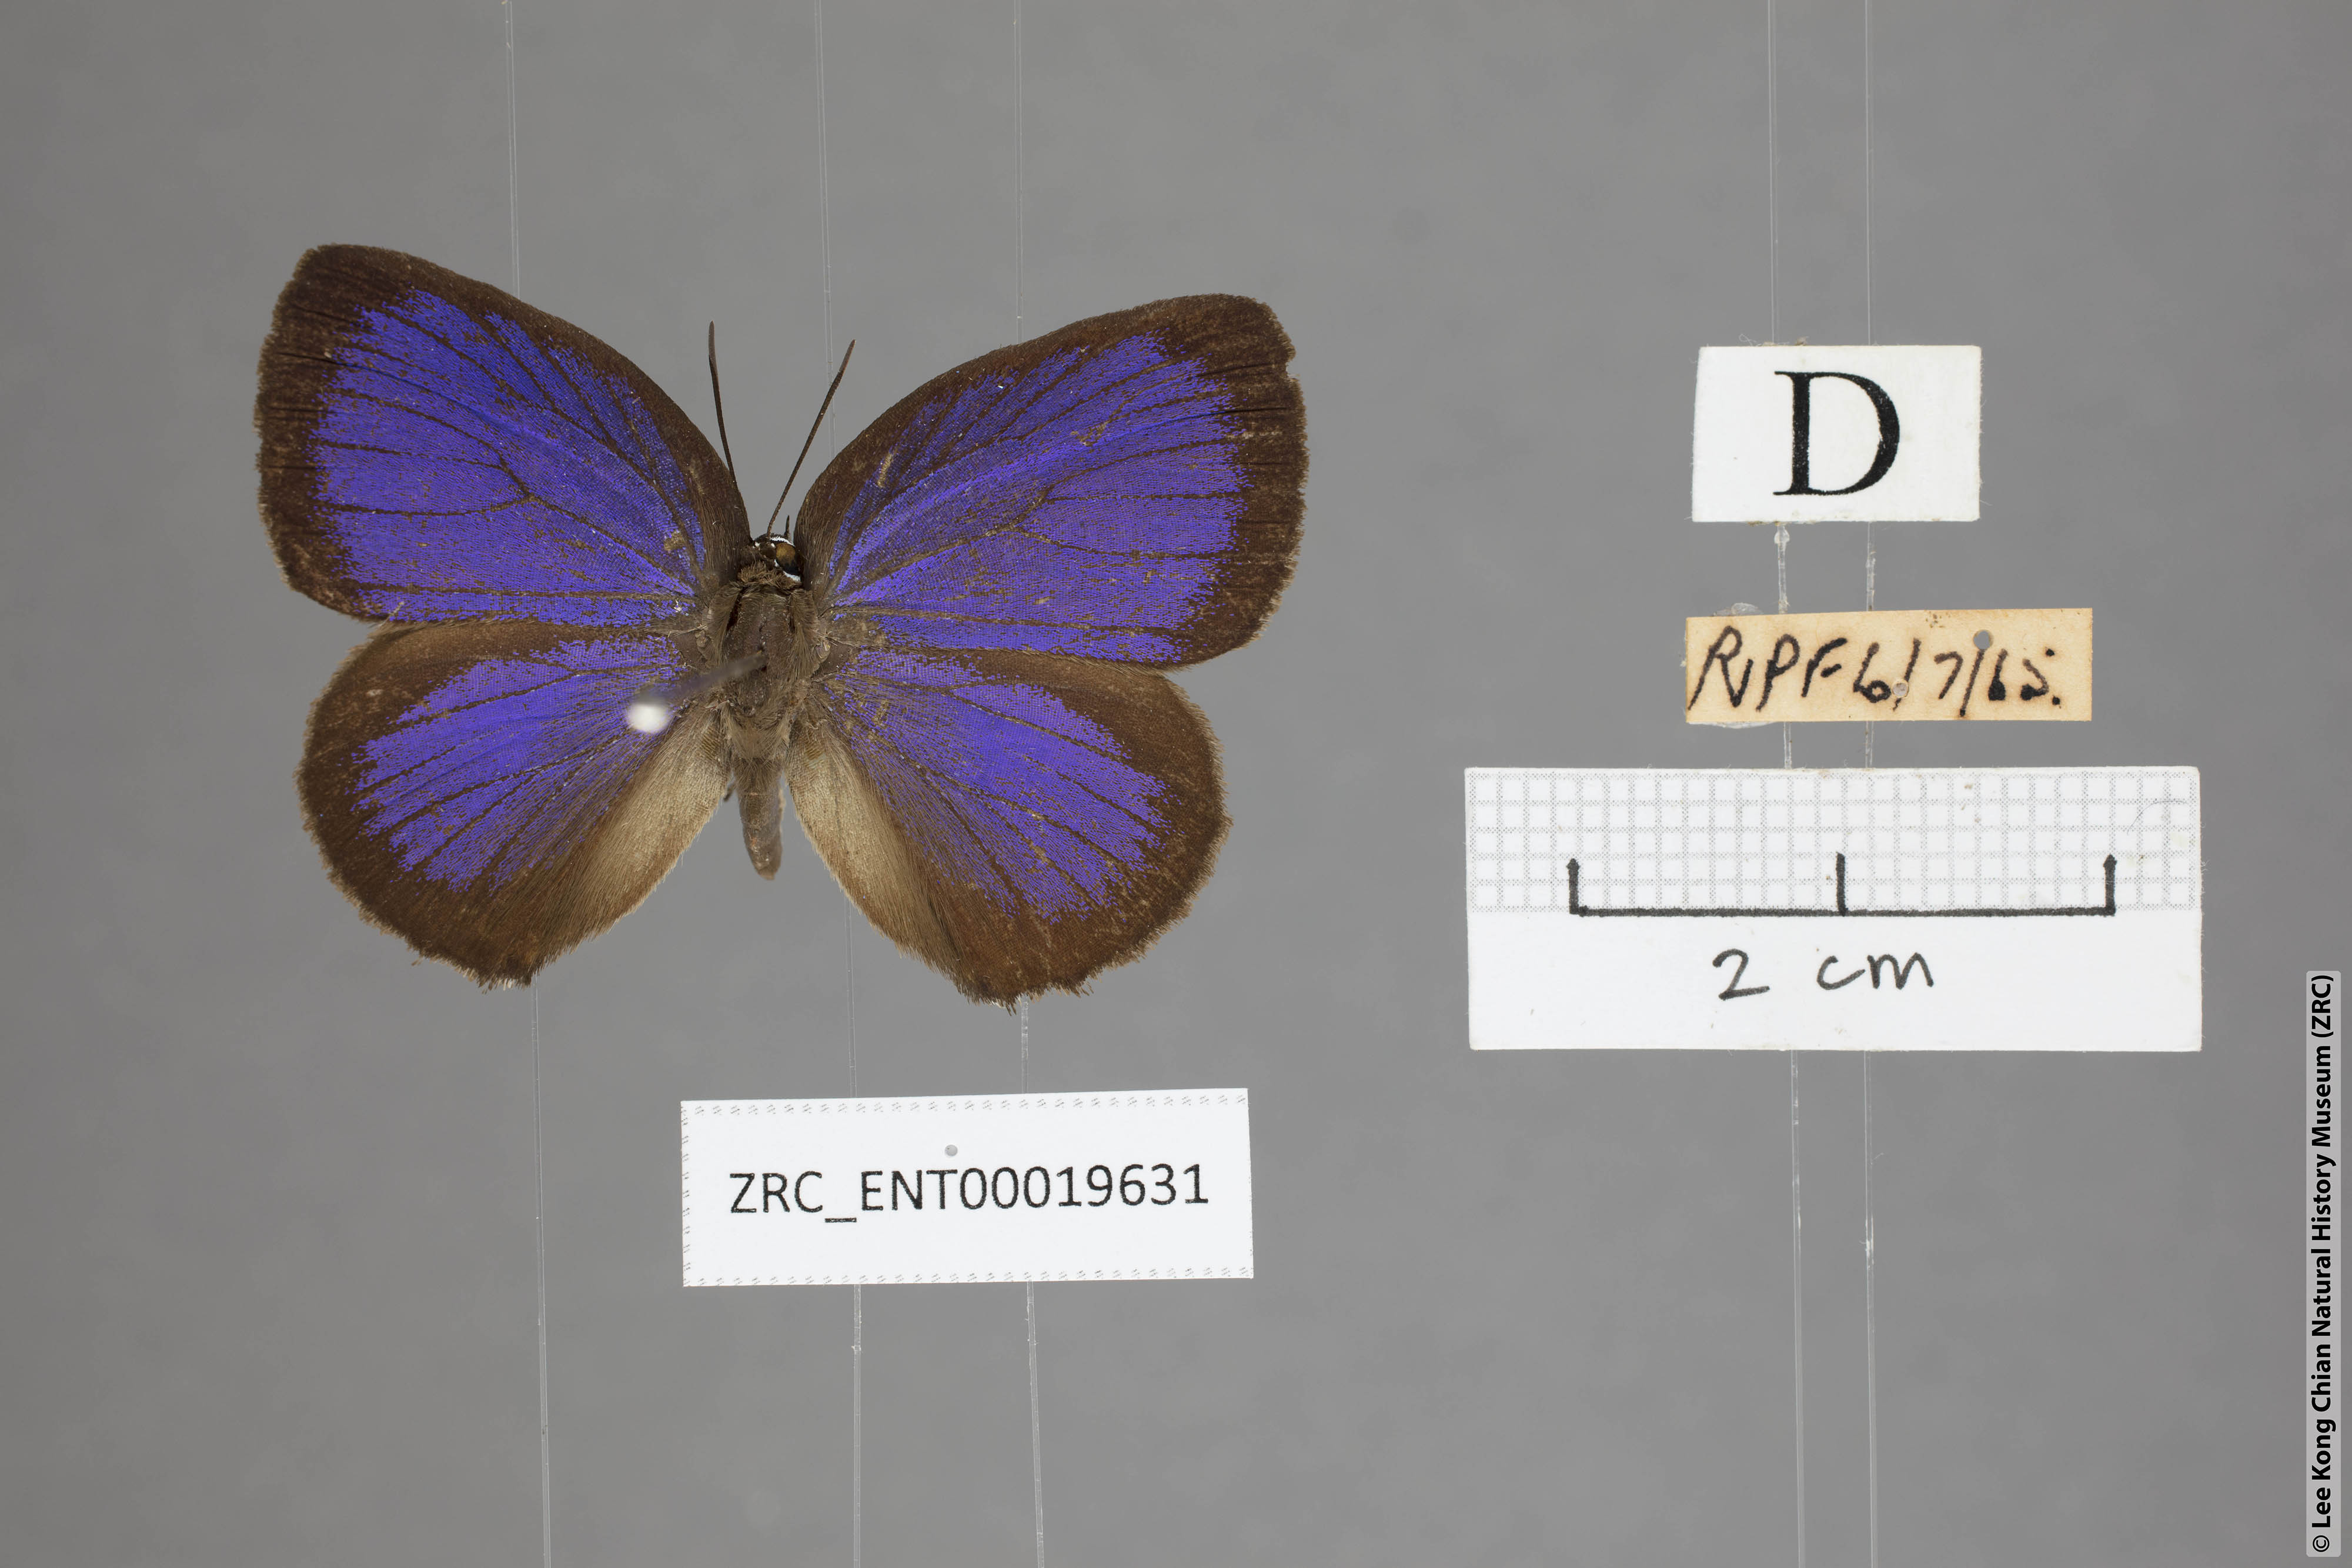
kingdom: Animalia
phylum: Arthropoda
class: Insecta
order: Lepidoptera
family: Lycaenidae
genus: Arhopala
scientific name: Arhopala major
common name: Major yellow oakblue
